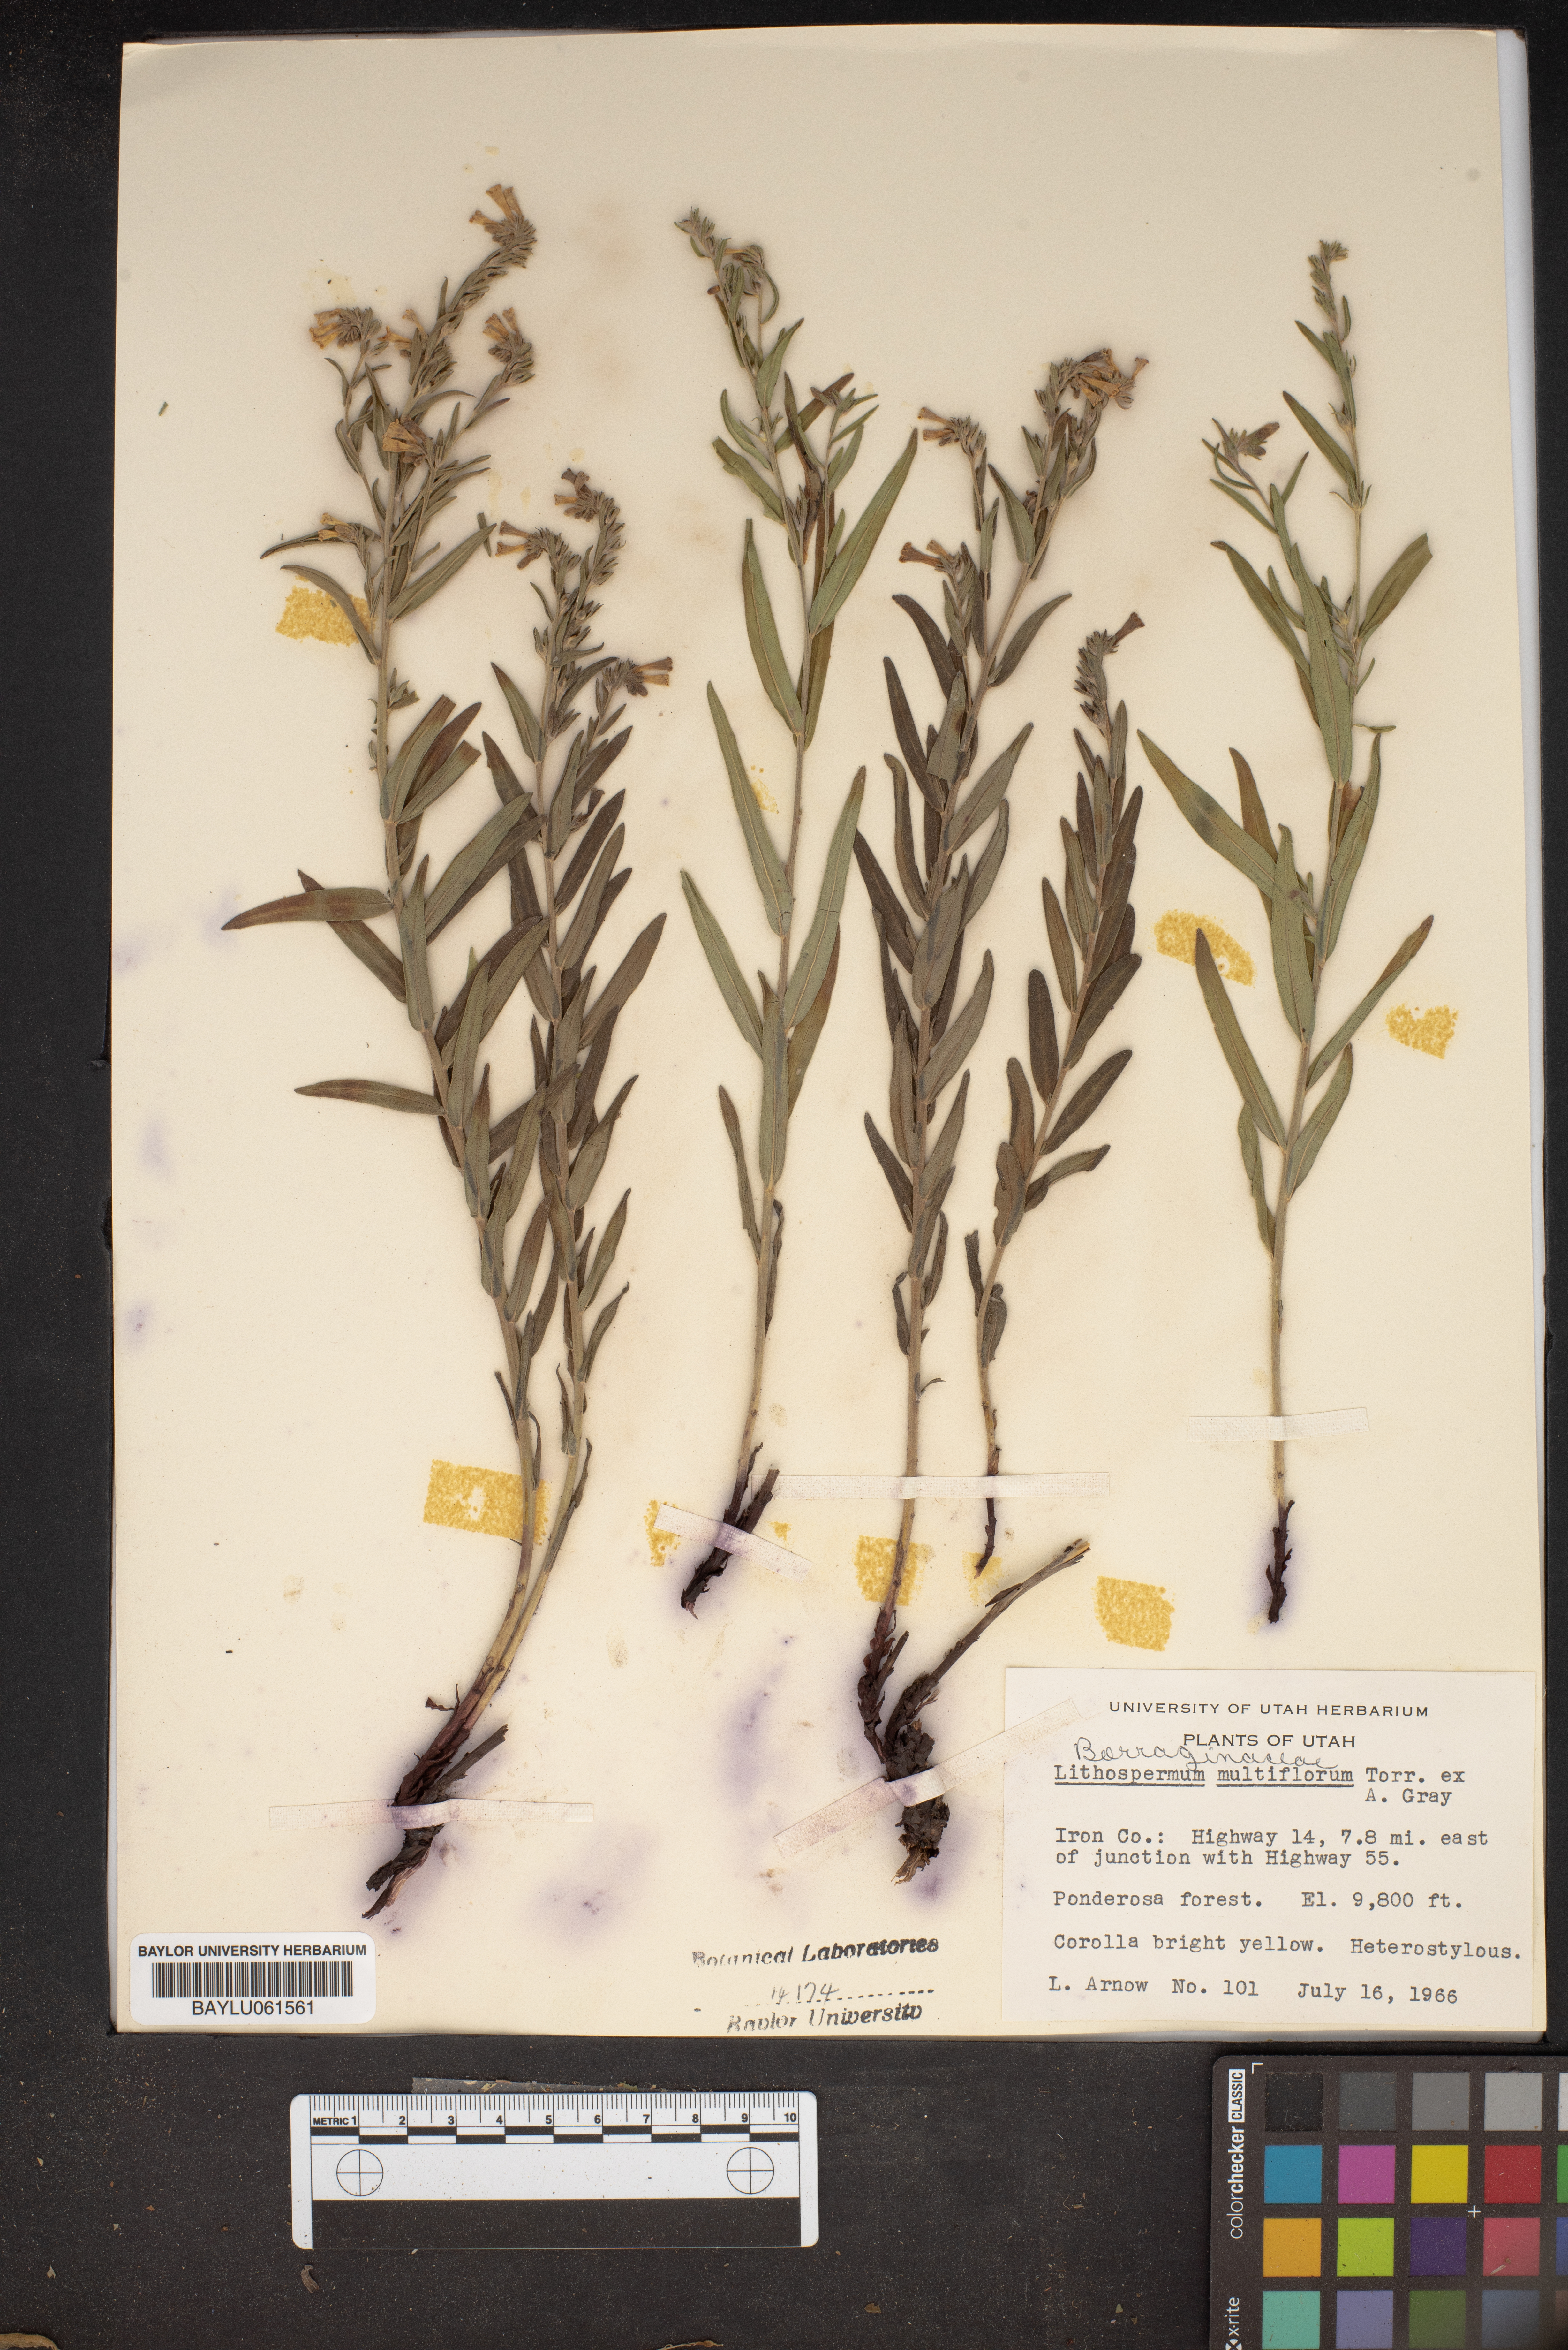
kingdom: Plantae
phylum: Tracheophyta
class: Magnoliopsida
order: Boraginales
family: Boraginaceae
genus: Lithospermum
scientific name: Lithospermum multiflorum
